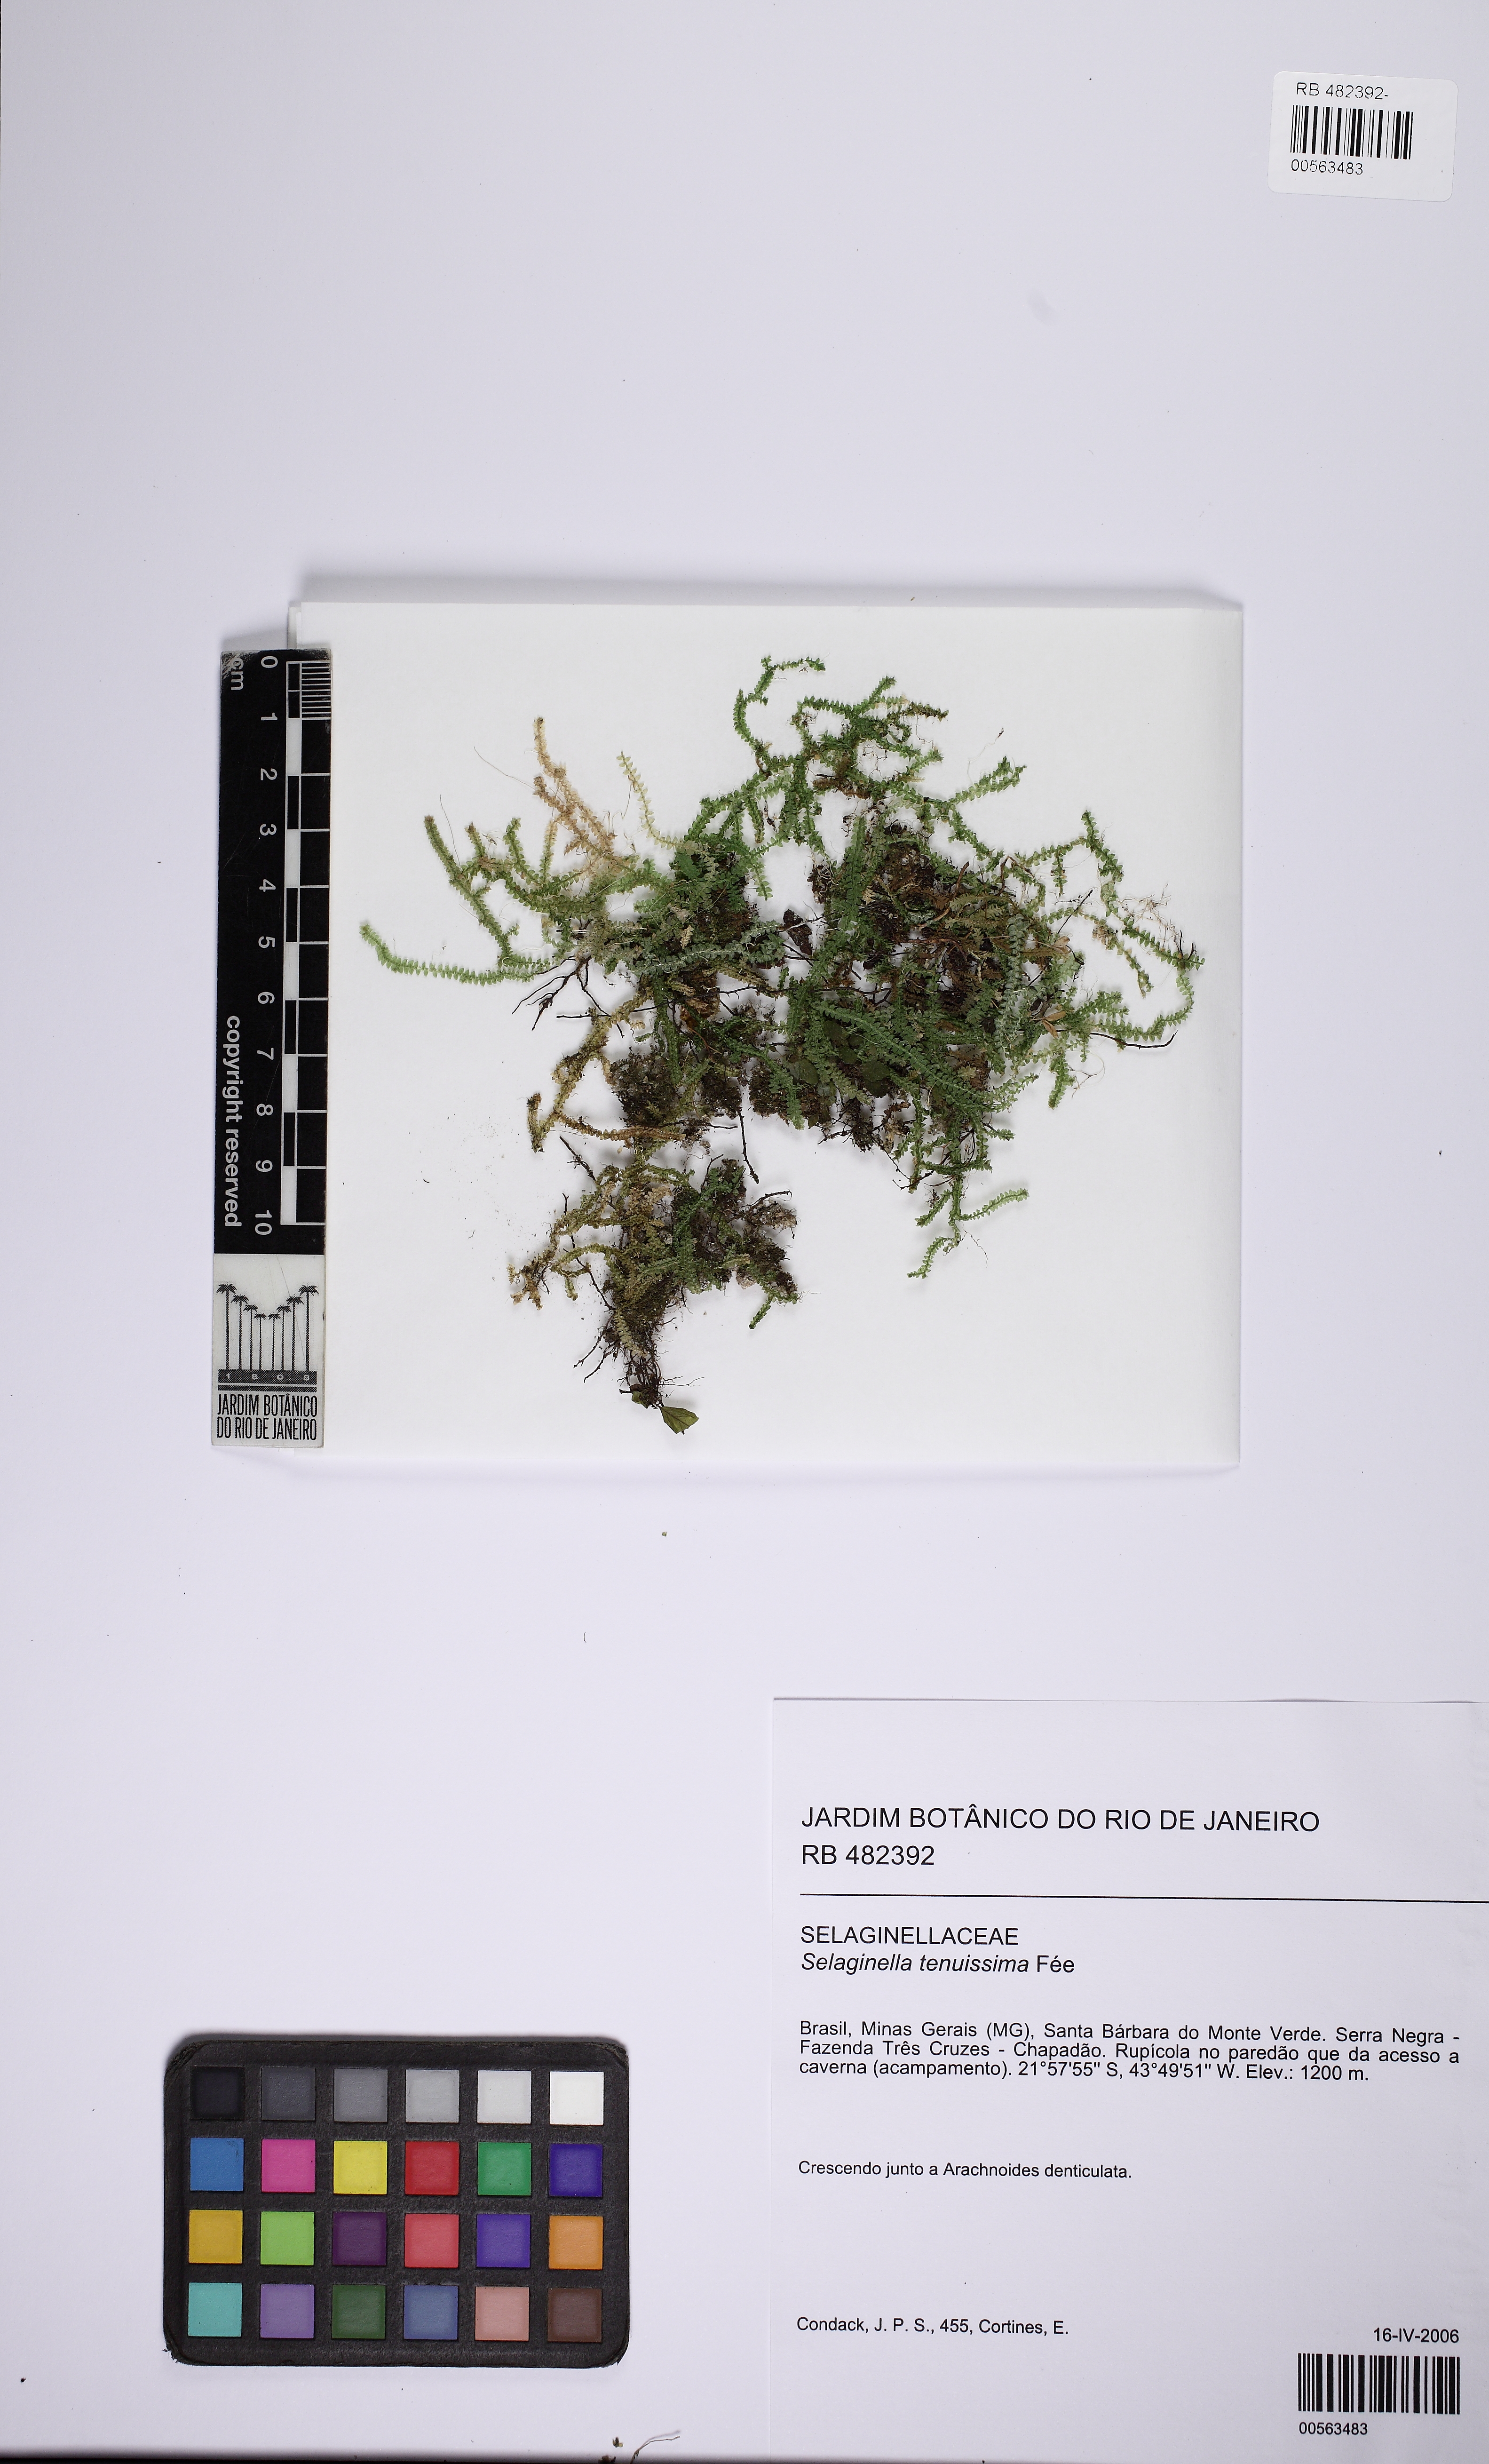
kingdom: Plantae
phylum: Tracheophyta
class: Lycopodiopsida
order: Selaginellales
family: Selaginellaceae
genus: Selaginella
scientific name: Selaginella tenuissima
